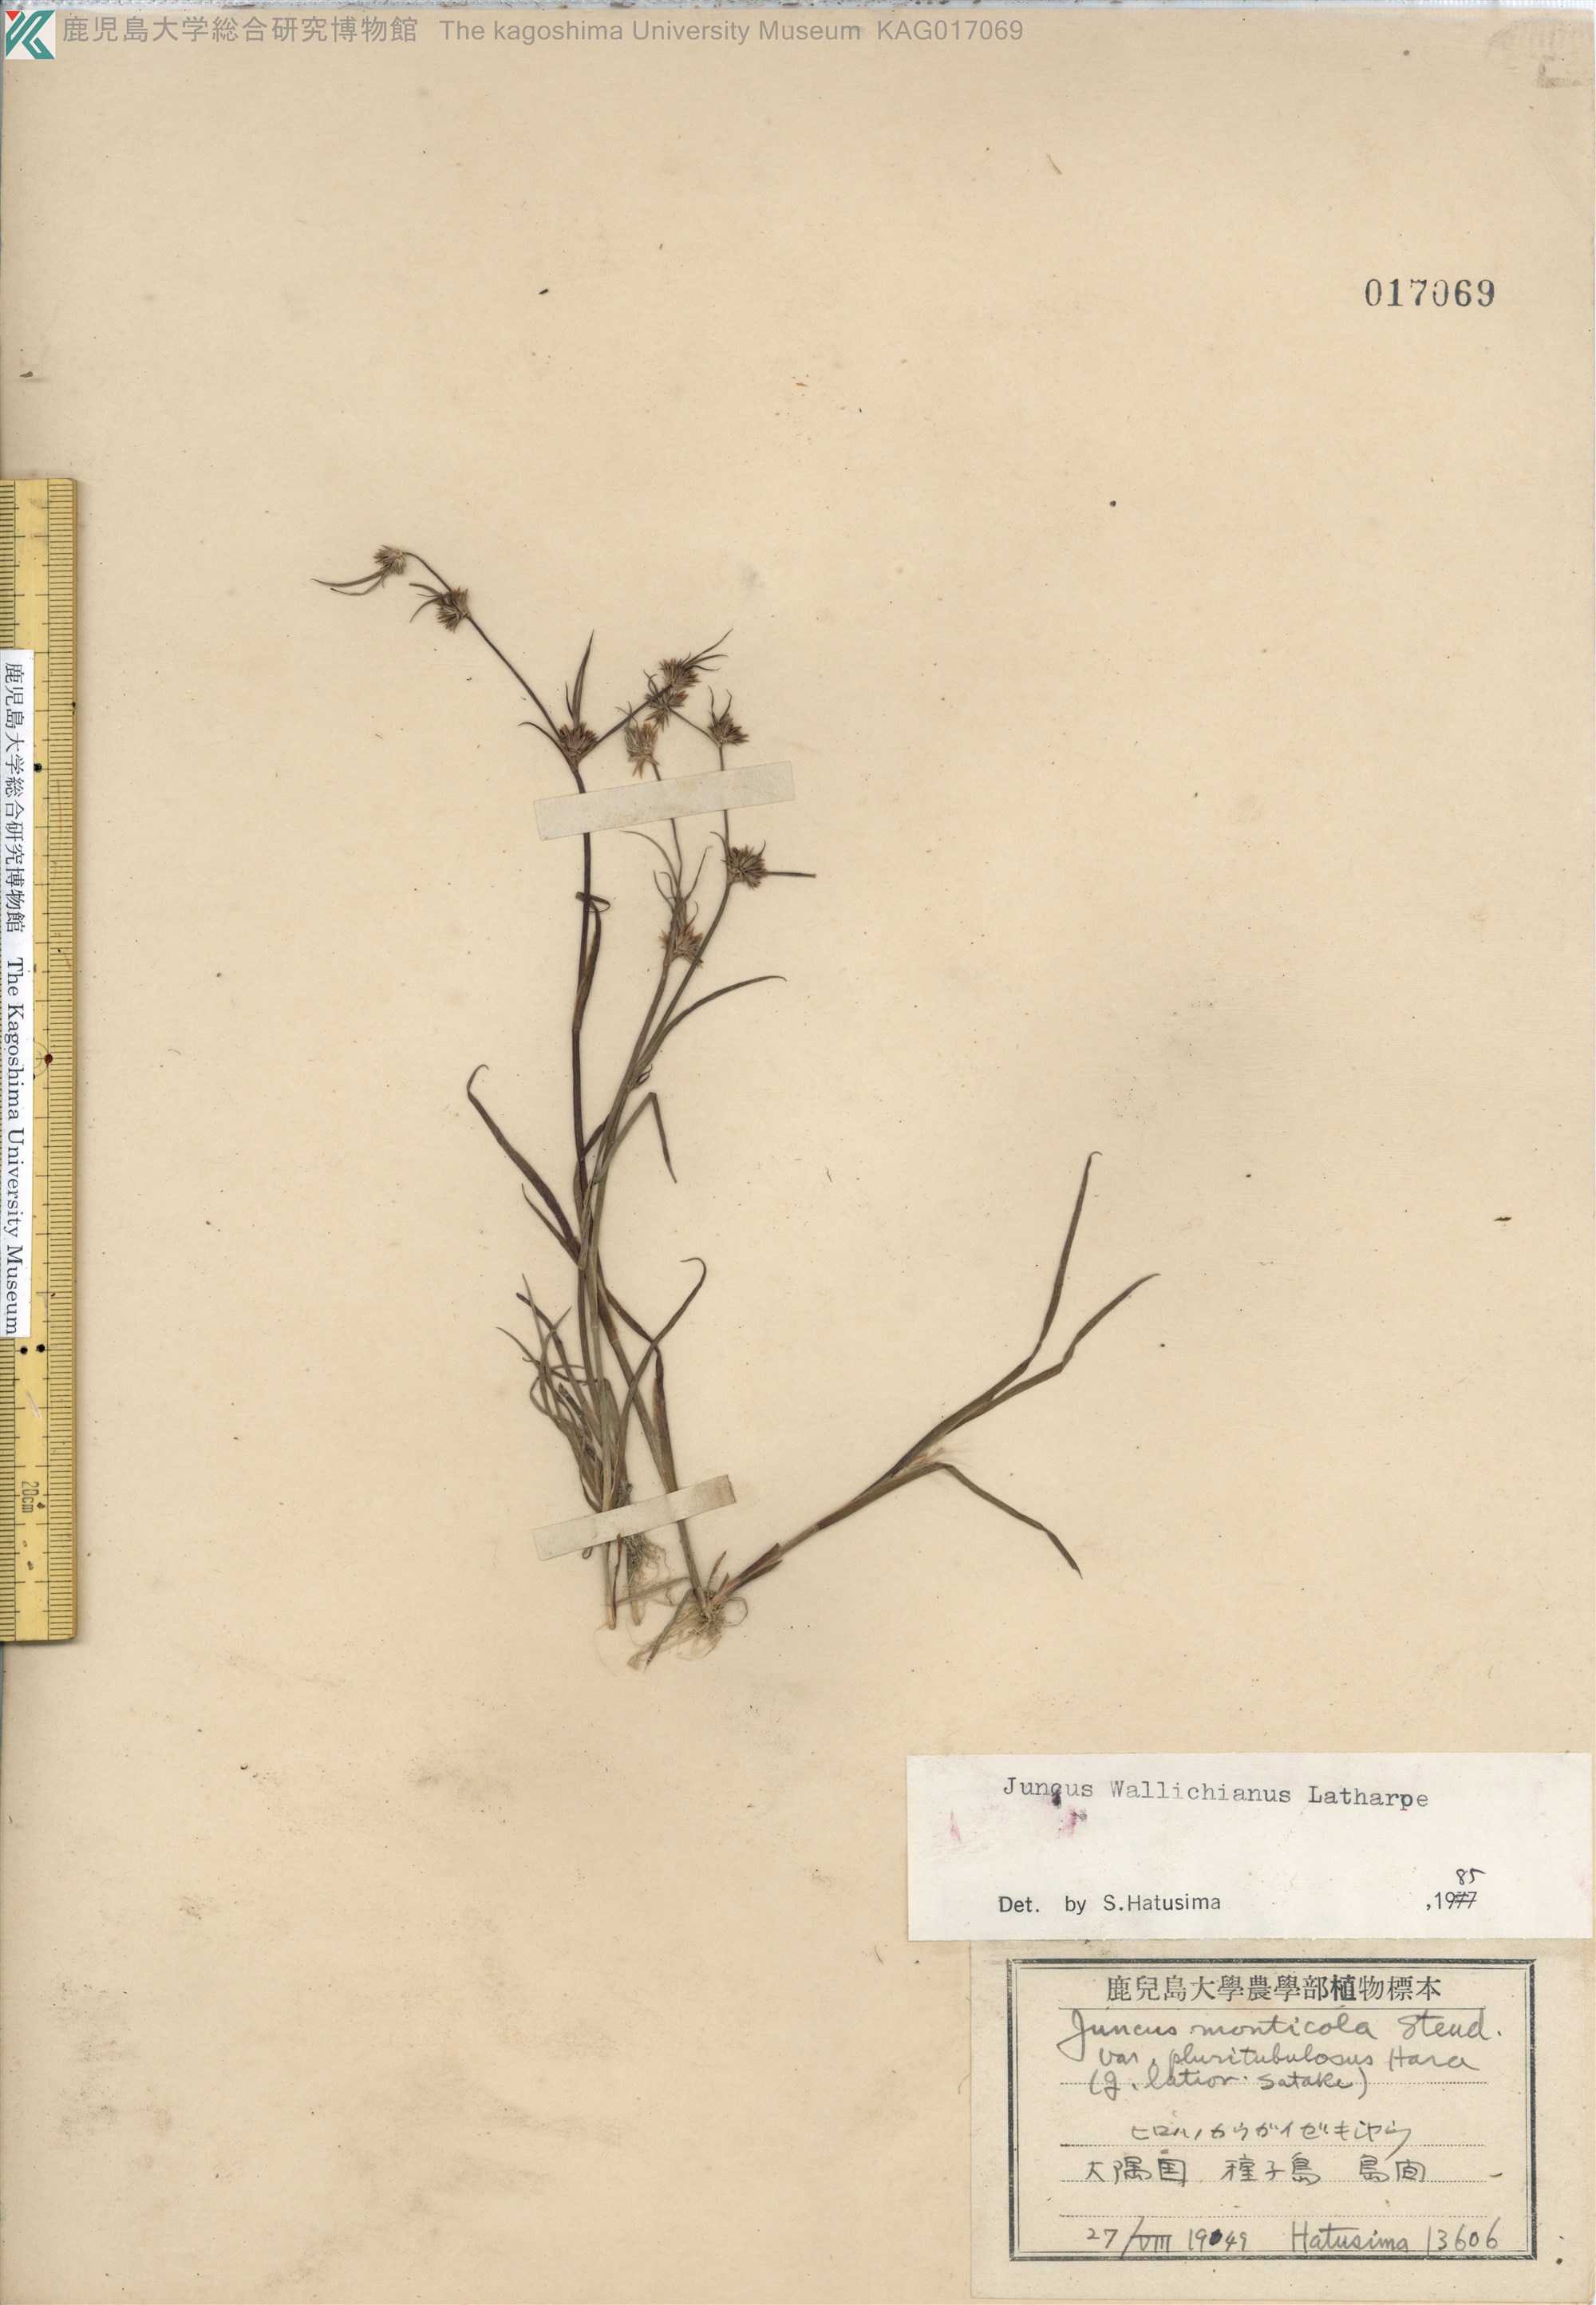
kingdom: Plantae
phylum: Tracheophyta
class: Liliopsida
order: Poales
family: Juncaceae
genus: Juncus
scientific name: Juncus prismatocarpus
